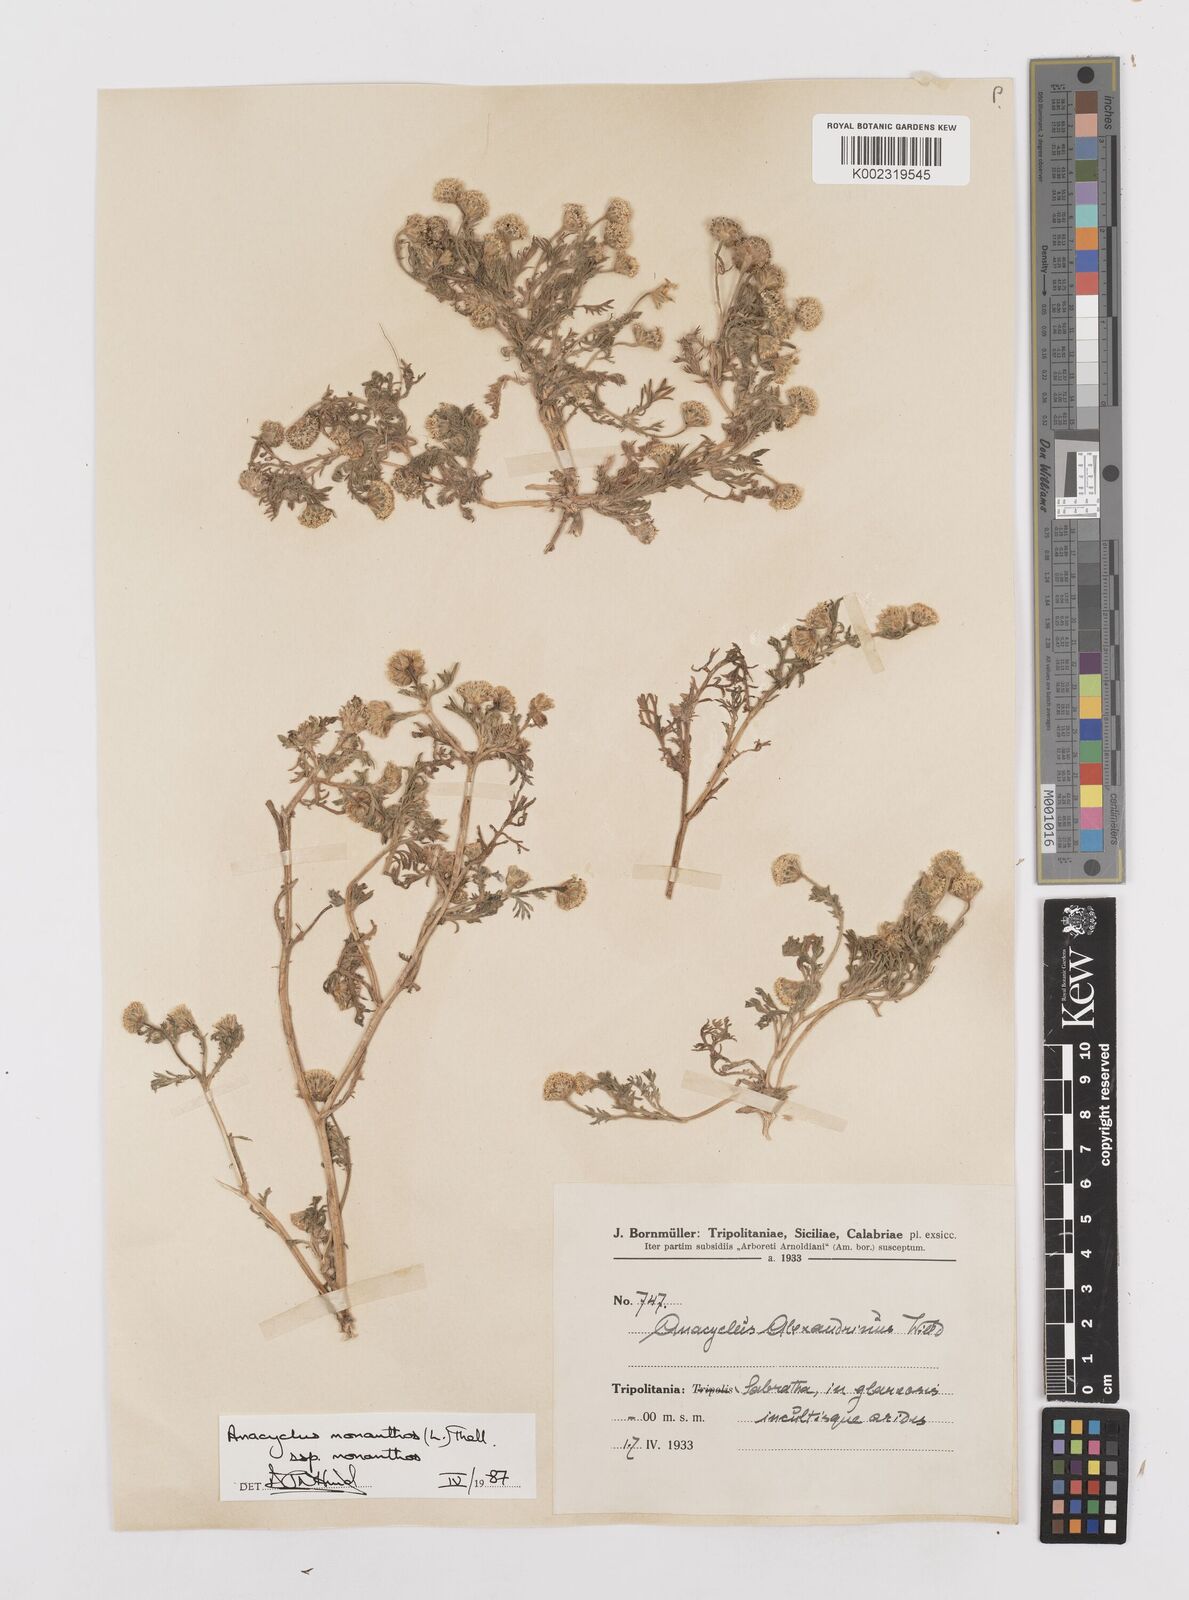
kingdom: Plantae
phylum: Tracheophyta
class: Magnoliopsida
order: Asterales
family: Asteraceae
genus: Anacyclus
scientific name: Anacyclus monanthos
